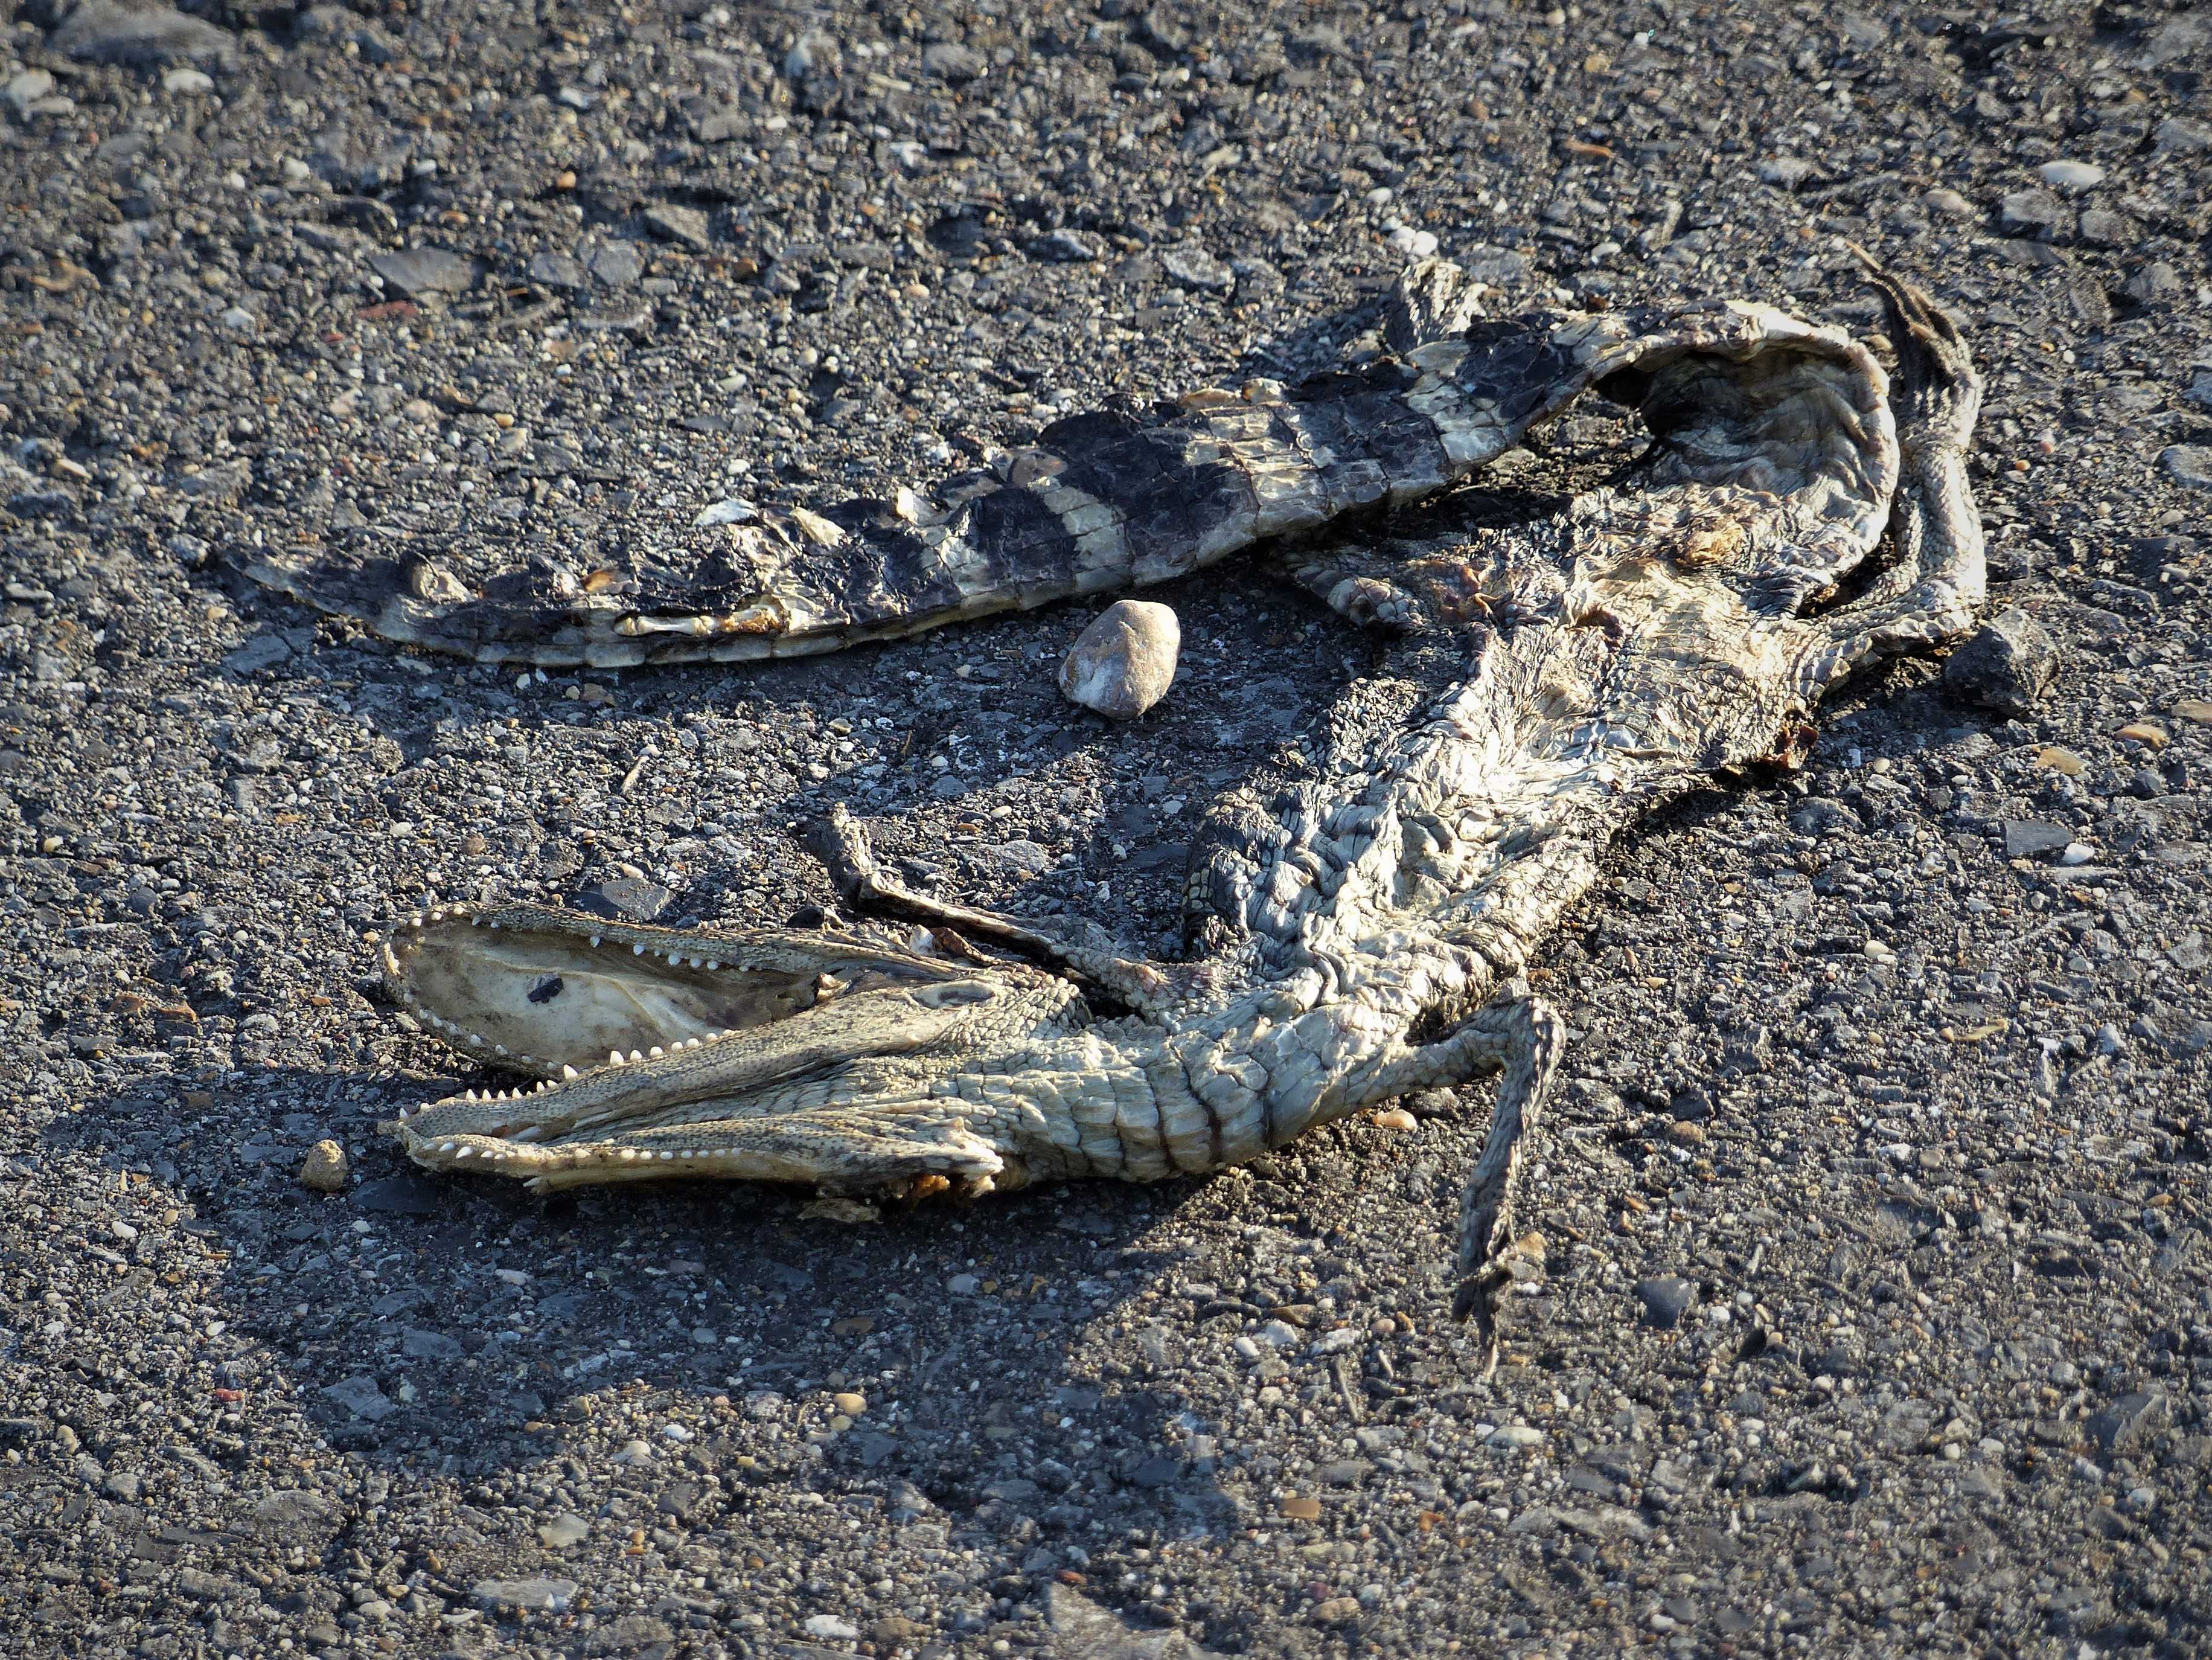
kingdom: Animalia
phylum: Chordata
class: Crocodylia
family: Alligatoridae
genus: Alligator
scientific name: Alligator mississippiensis
